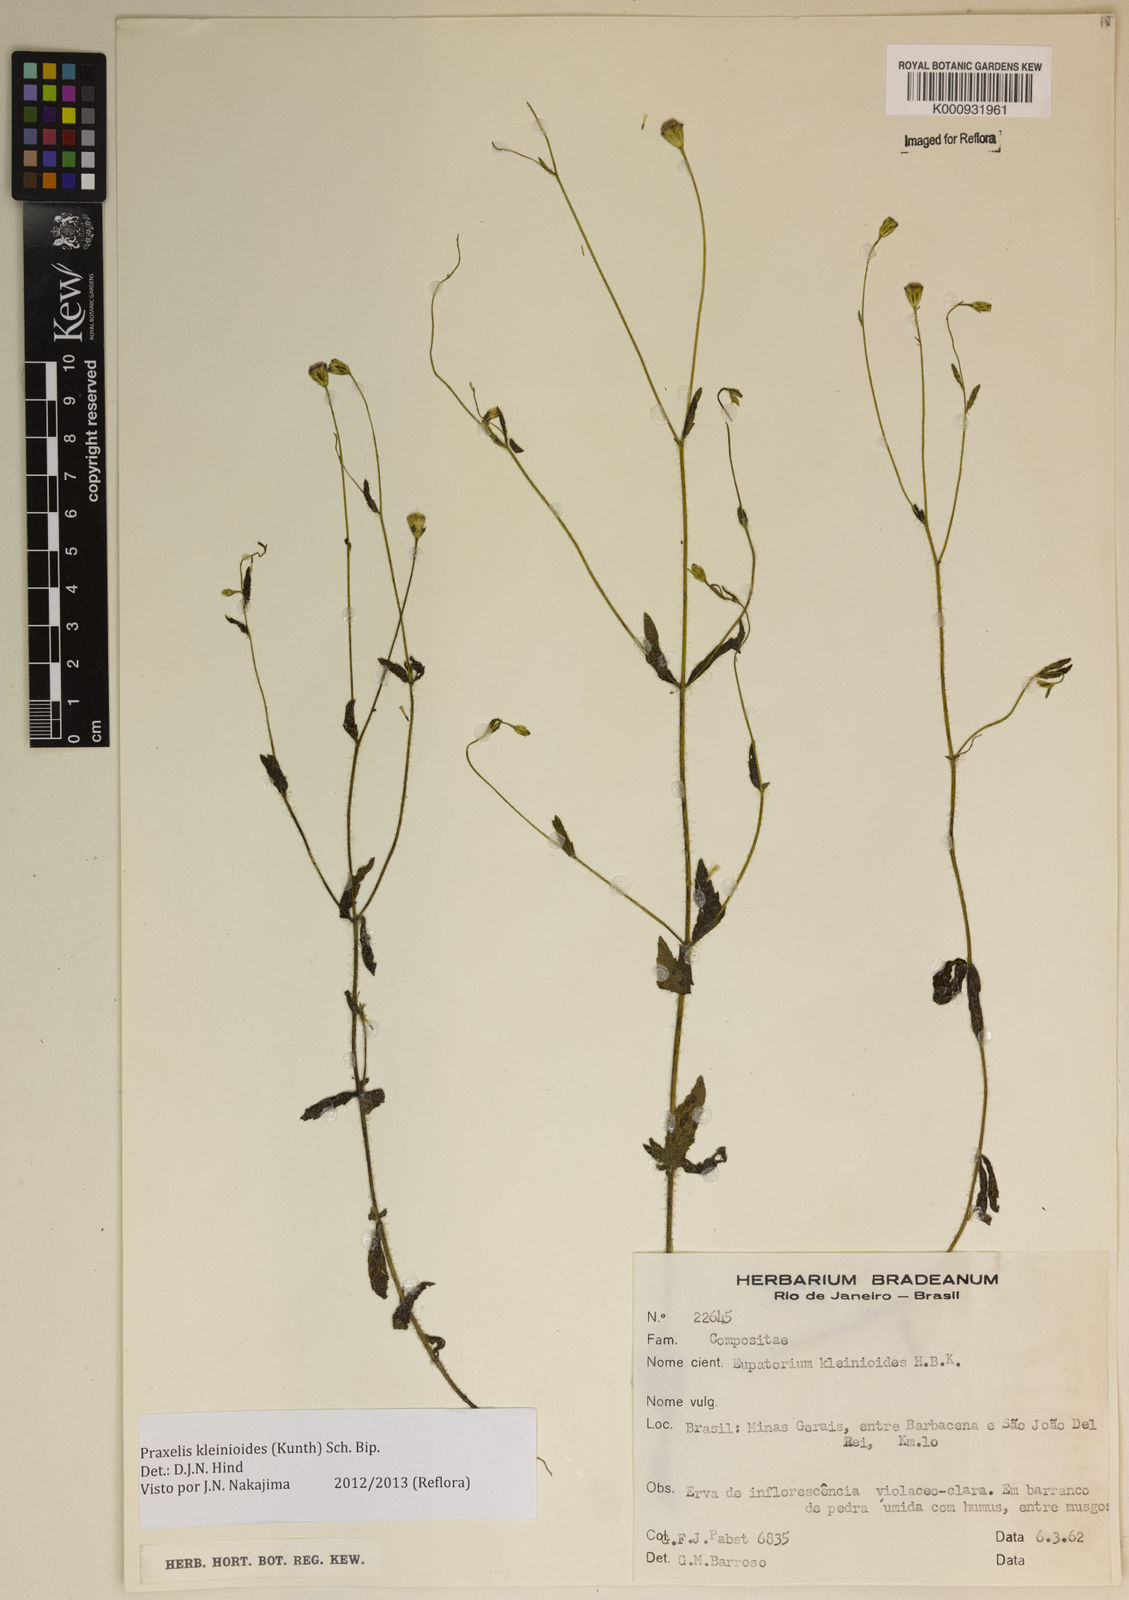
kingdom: Plantae
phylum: Tracheophyta
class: Magnoliopsida
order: Asterales
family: Asteraceae
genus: Praxelis
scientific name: Praxelis kleinioides
